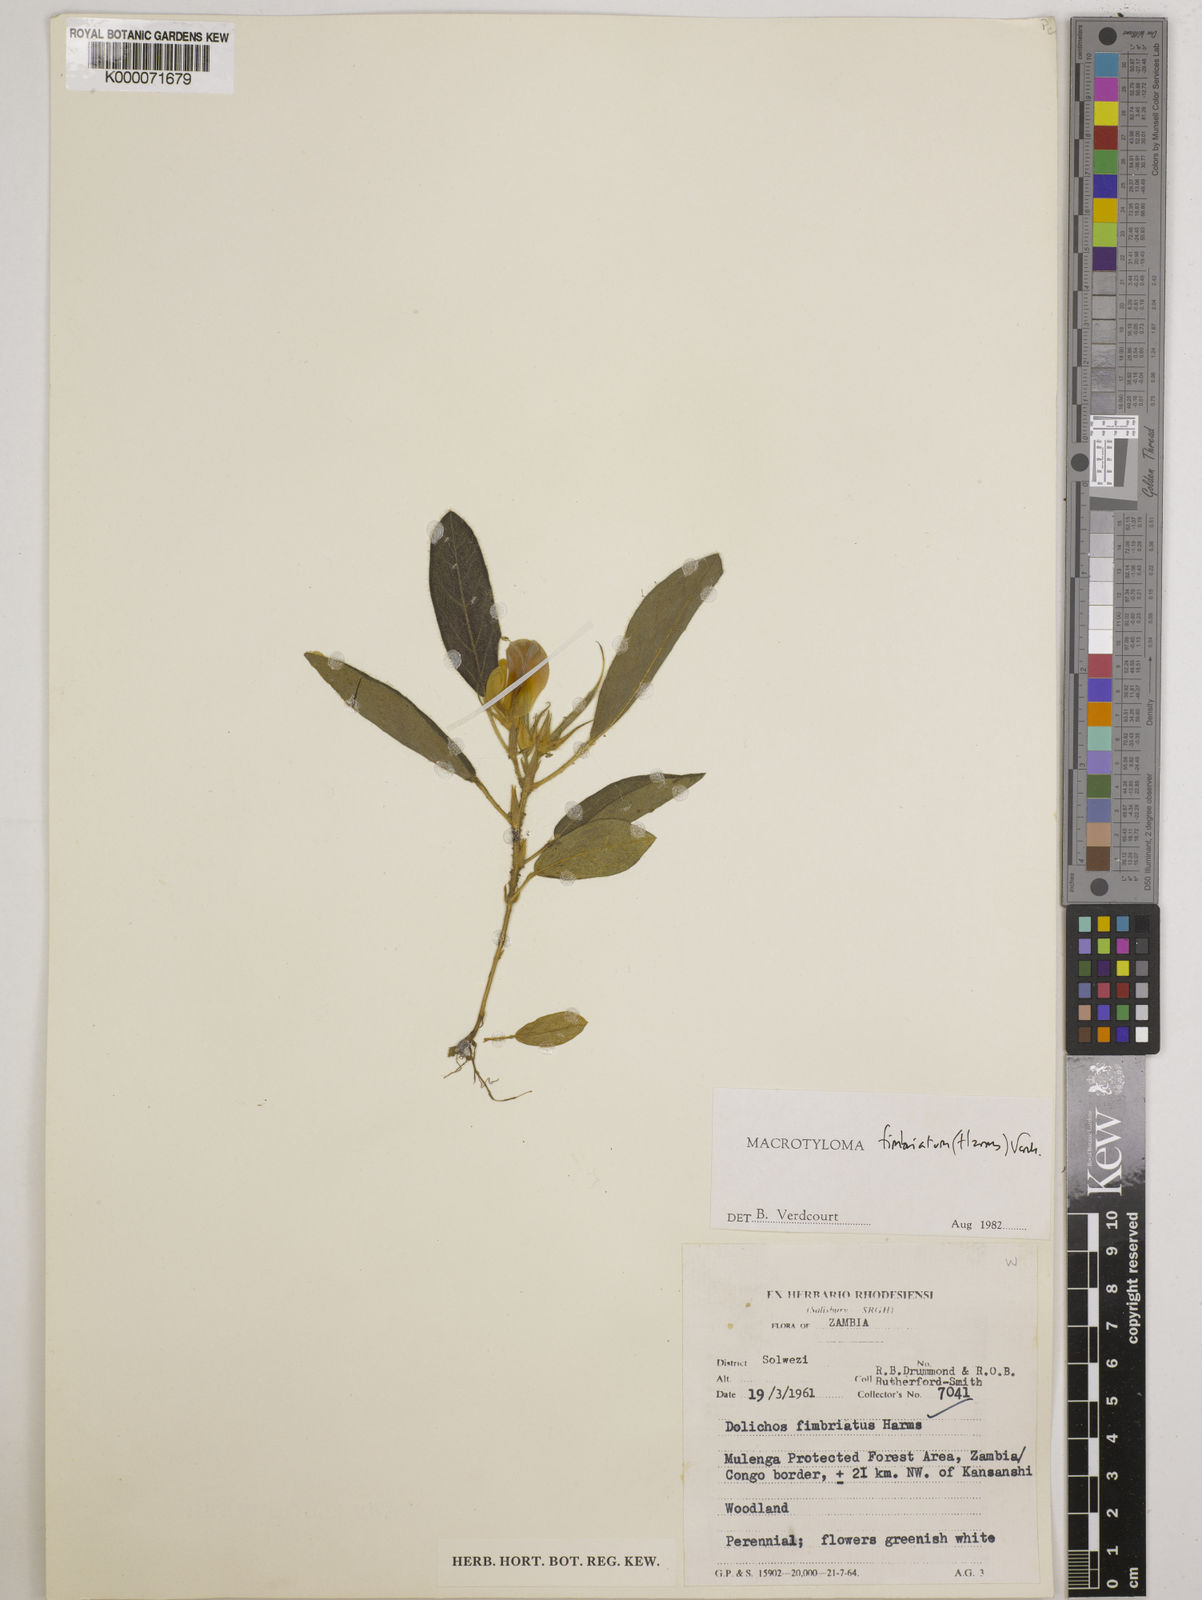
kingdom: Plantae
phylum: Tracheophyta
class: Magnoliopsida
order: Fabales
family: Fabaceae
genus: Macrotyloma
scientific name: Macrotyloma fimbriatum
